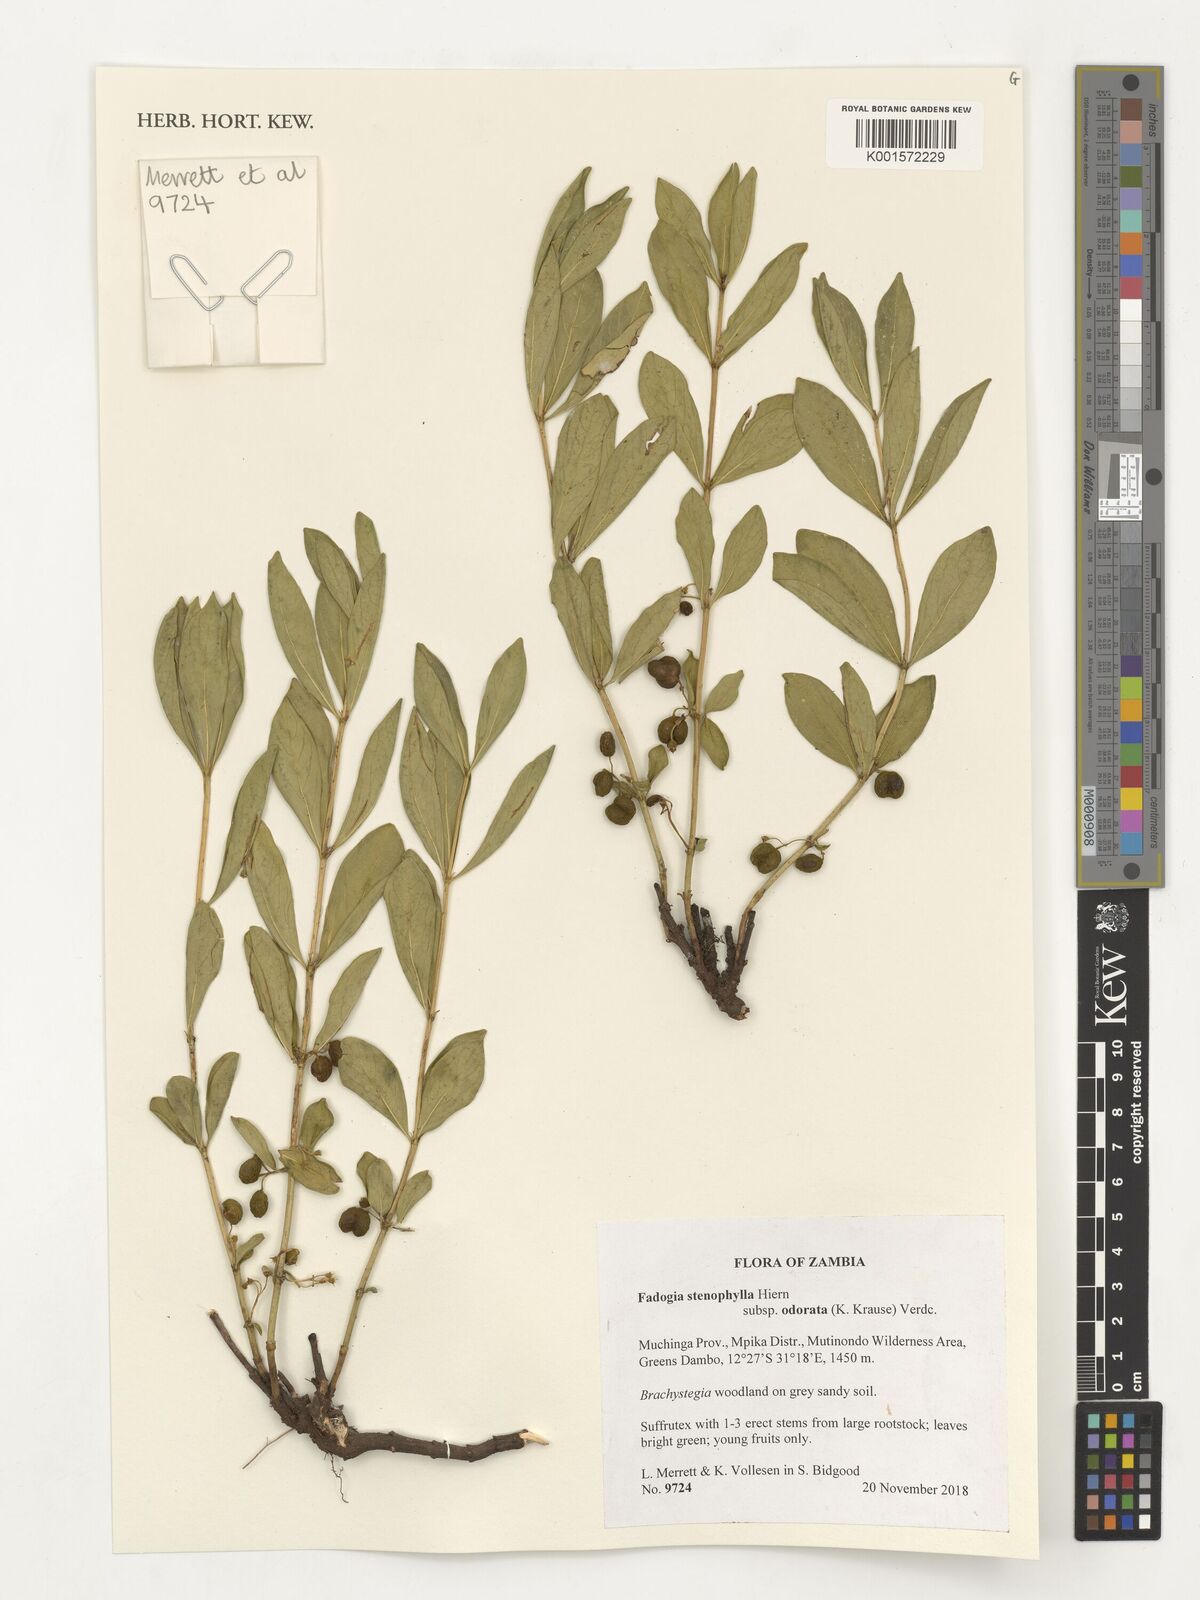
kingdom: Plantae
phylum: Tracheophyta
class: Magnoliopsida
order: Gentianales
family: Rubiaceae
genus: Fadogia
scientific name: Fadogia stenophylla
